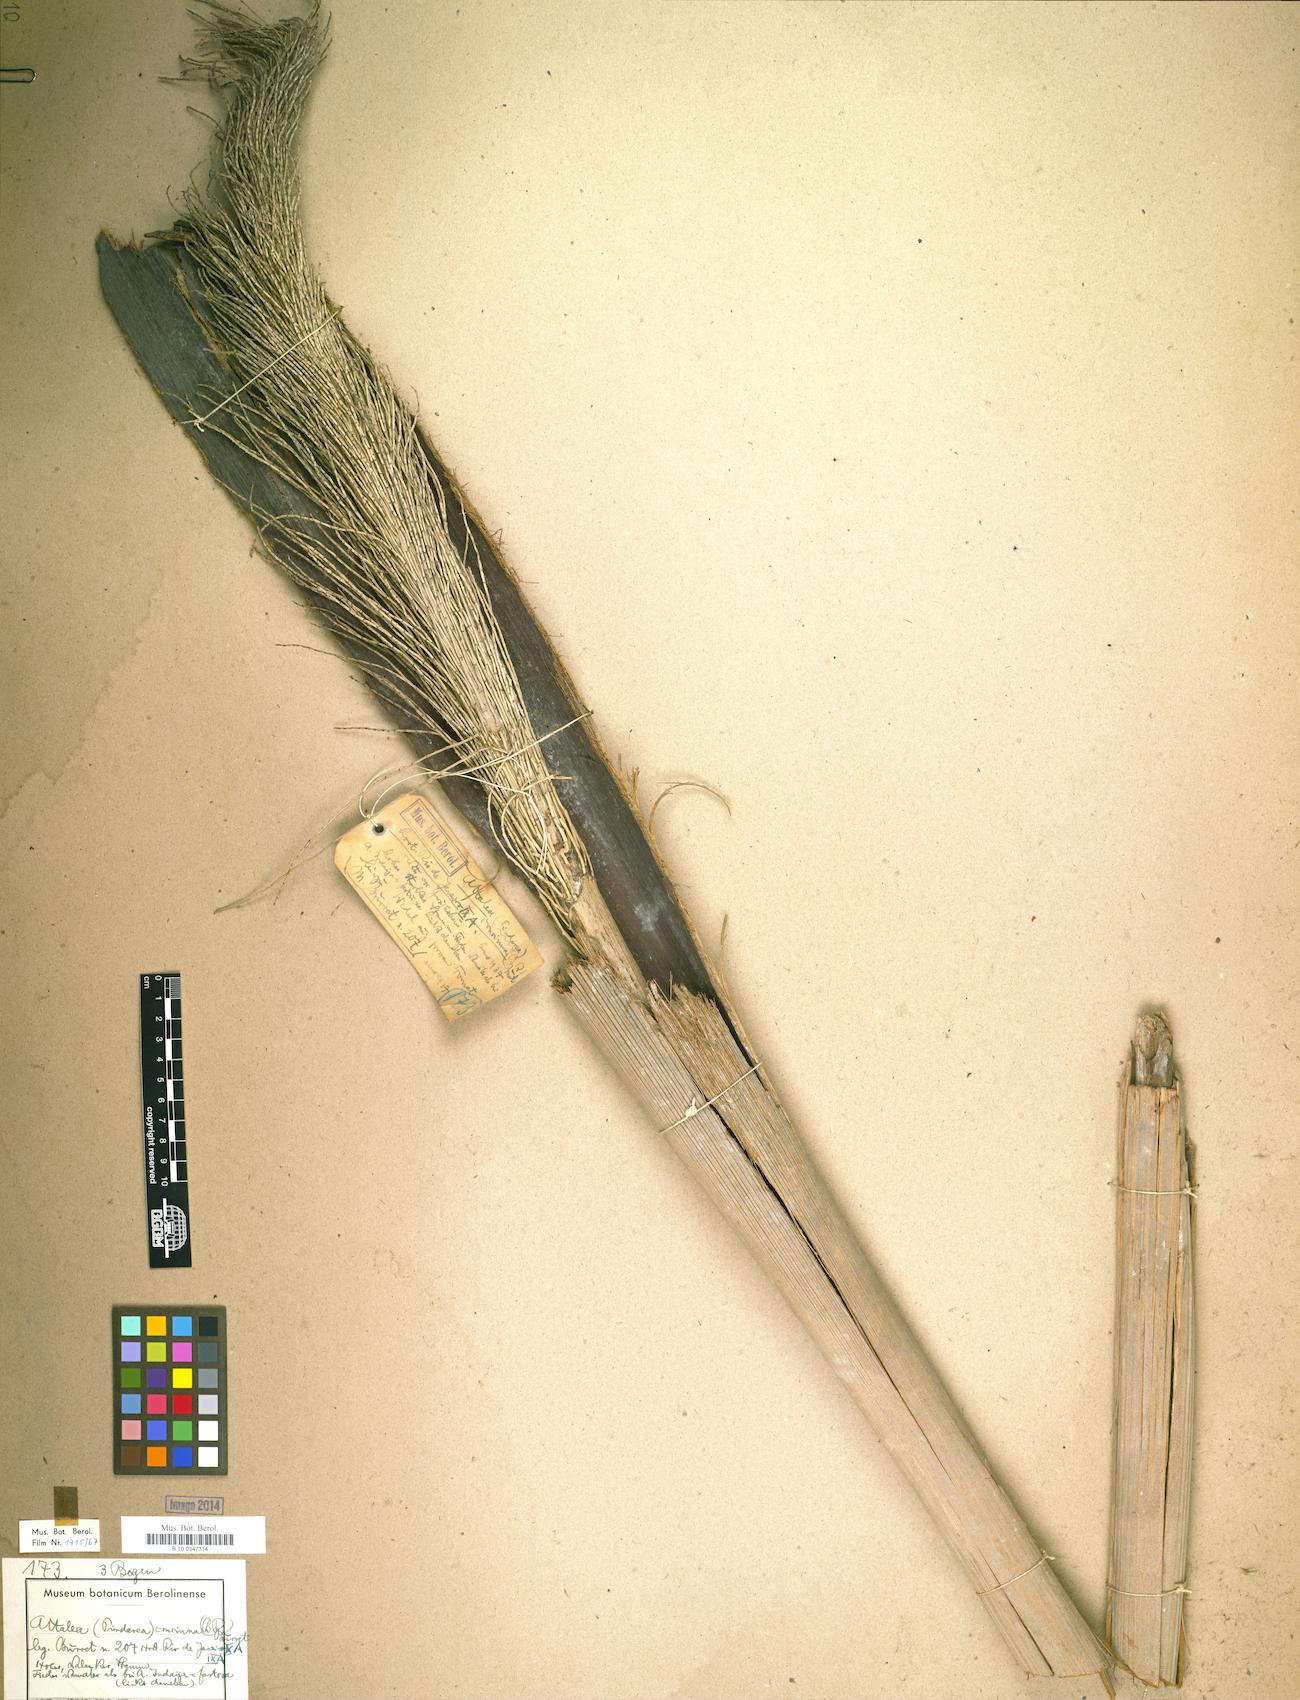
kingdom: Plantae
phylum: Tracheophyta
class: Liliopsida
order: Arecales
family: Arecaceae
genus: Attalea
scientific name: Attalea dubia
